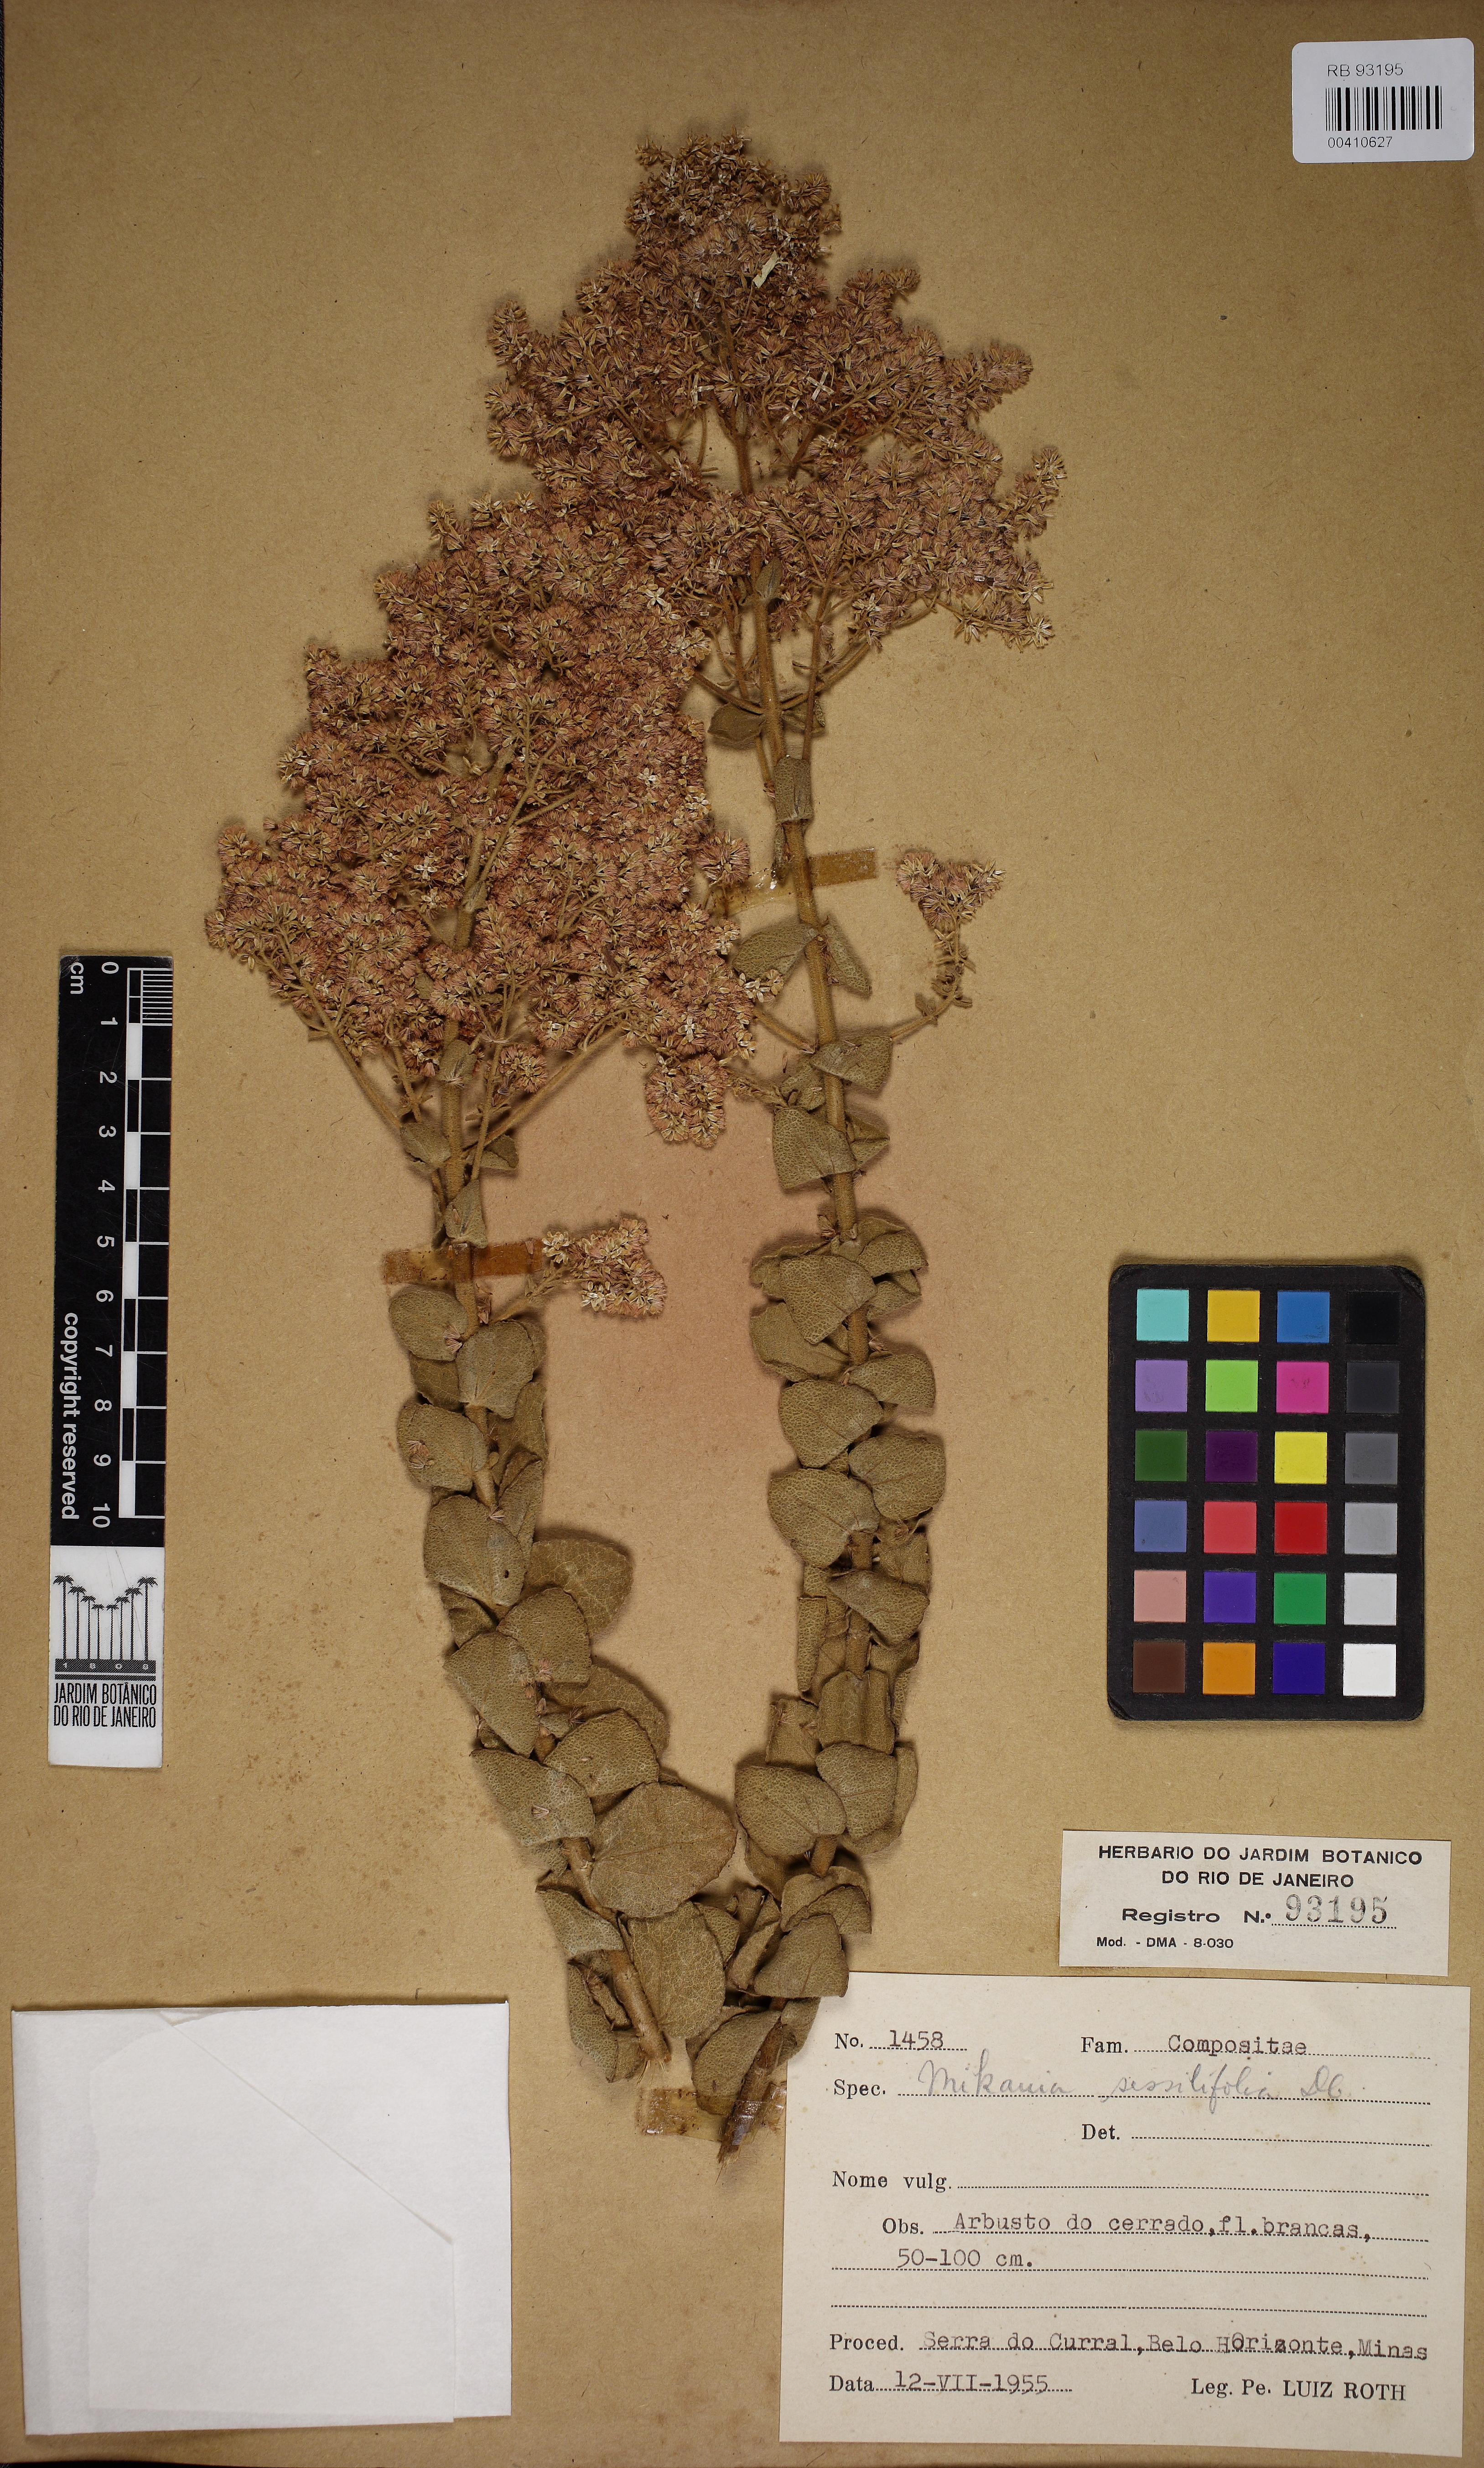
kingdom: Plantae
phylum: Tracheophyta
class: Magnoliopsida
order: Asterales
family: Asteraceae
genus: Mikania
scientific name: Mikania sessilifolia
